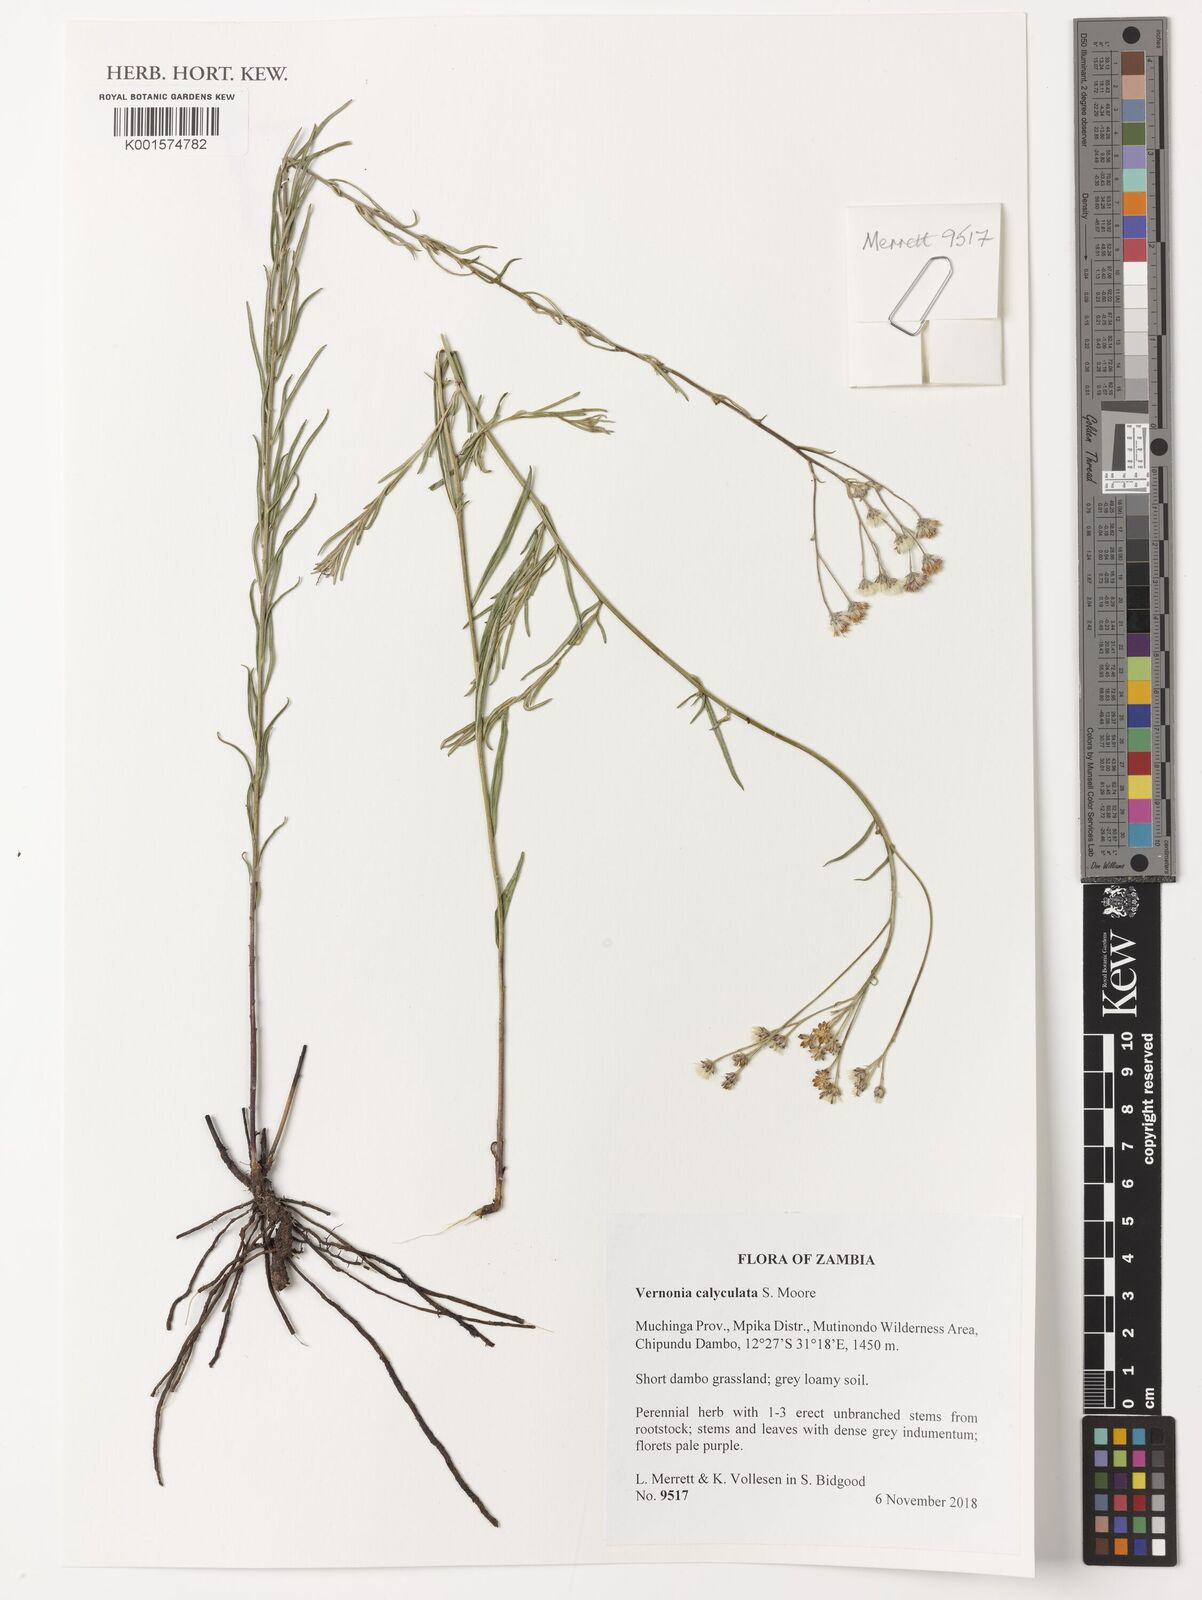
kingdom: Plantae
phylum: Tracheophyta
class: Magnoliopsida
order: Asterales
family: Asteraceae
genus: Hilliardiella
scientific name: Hilliardiella calyculata
